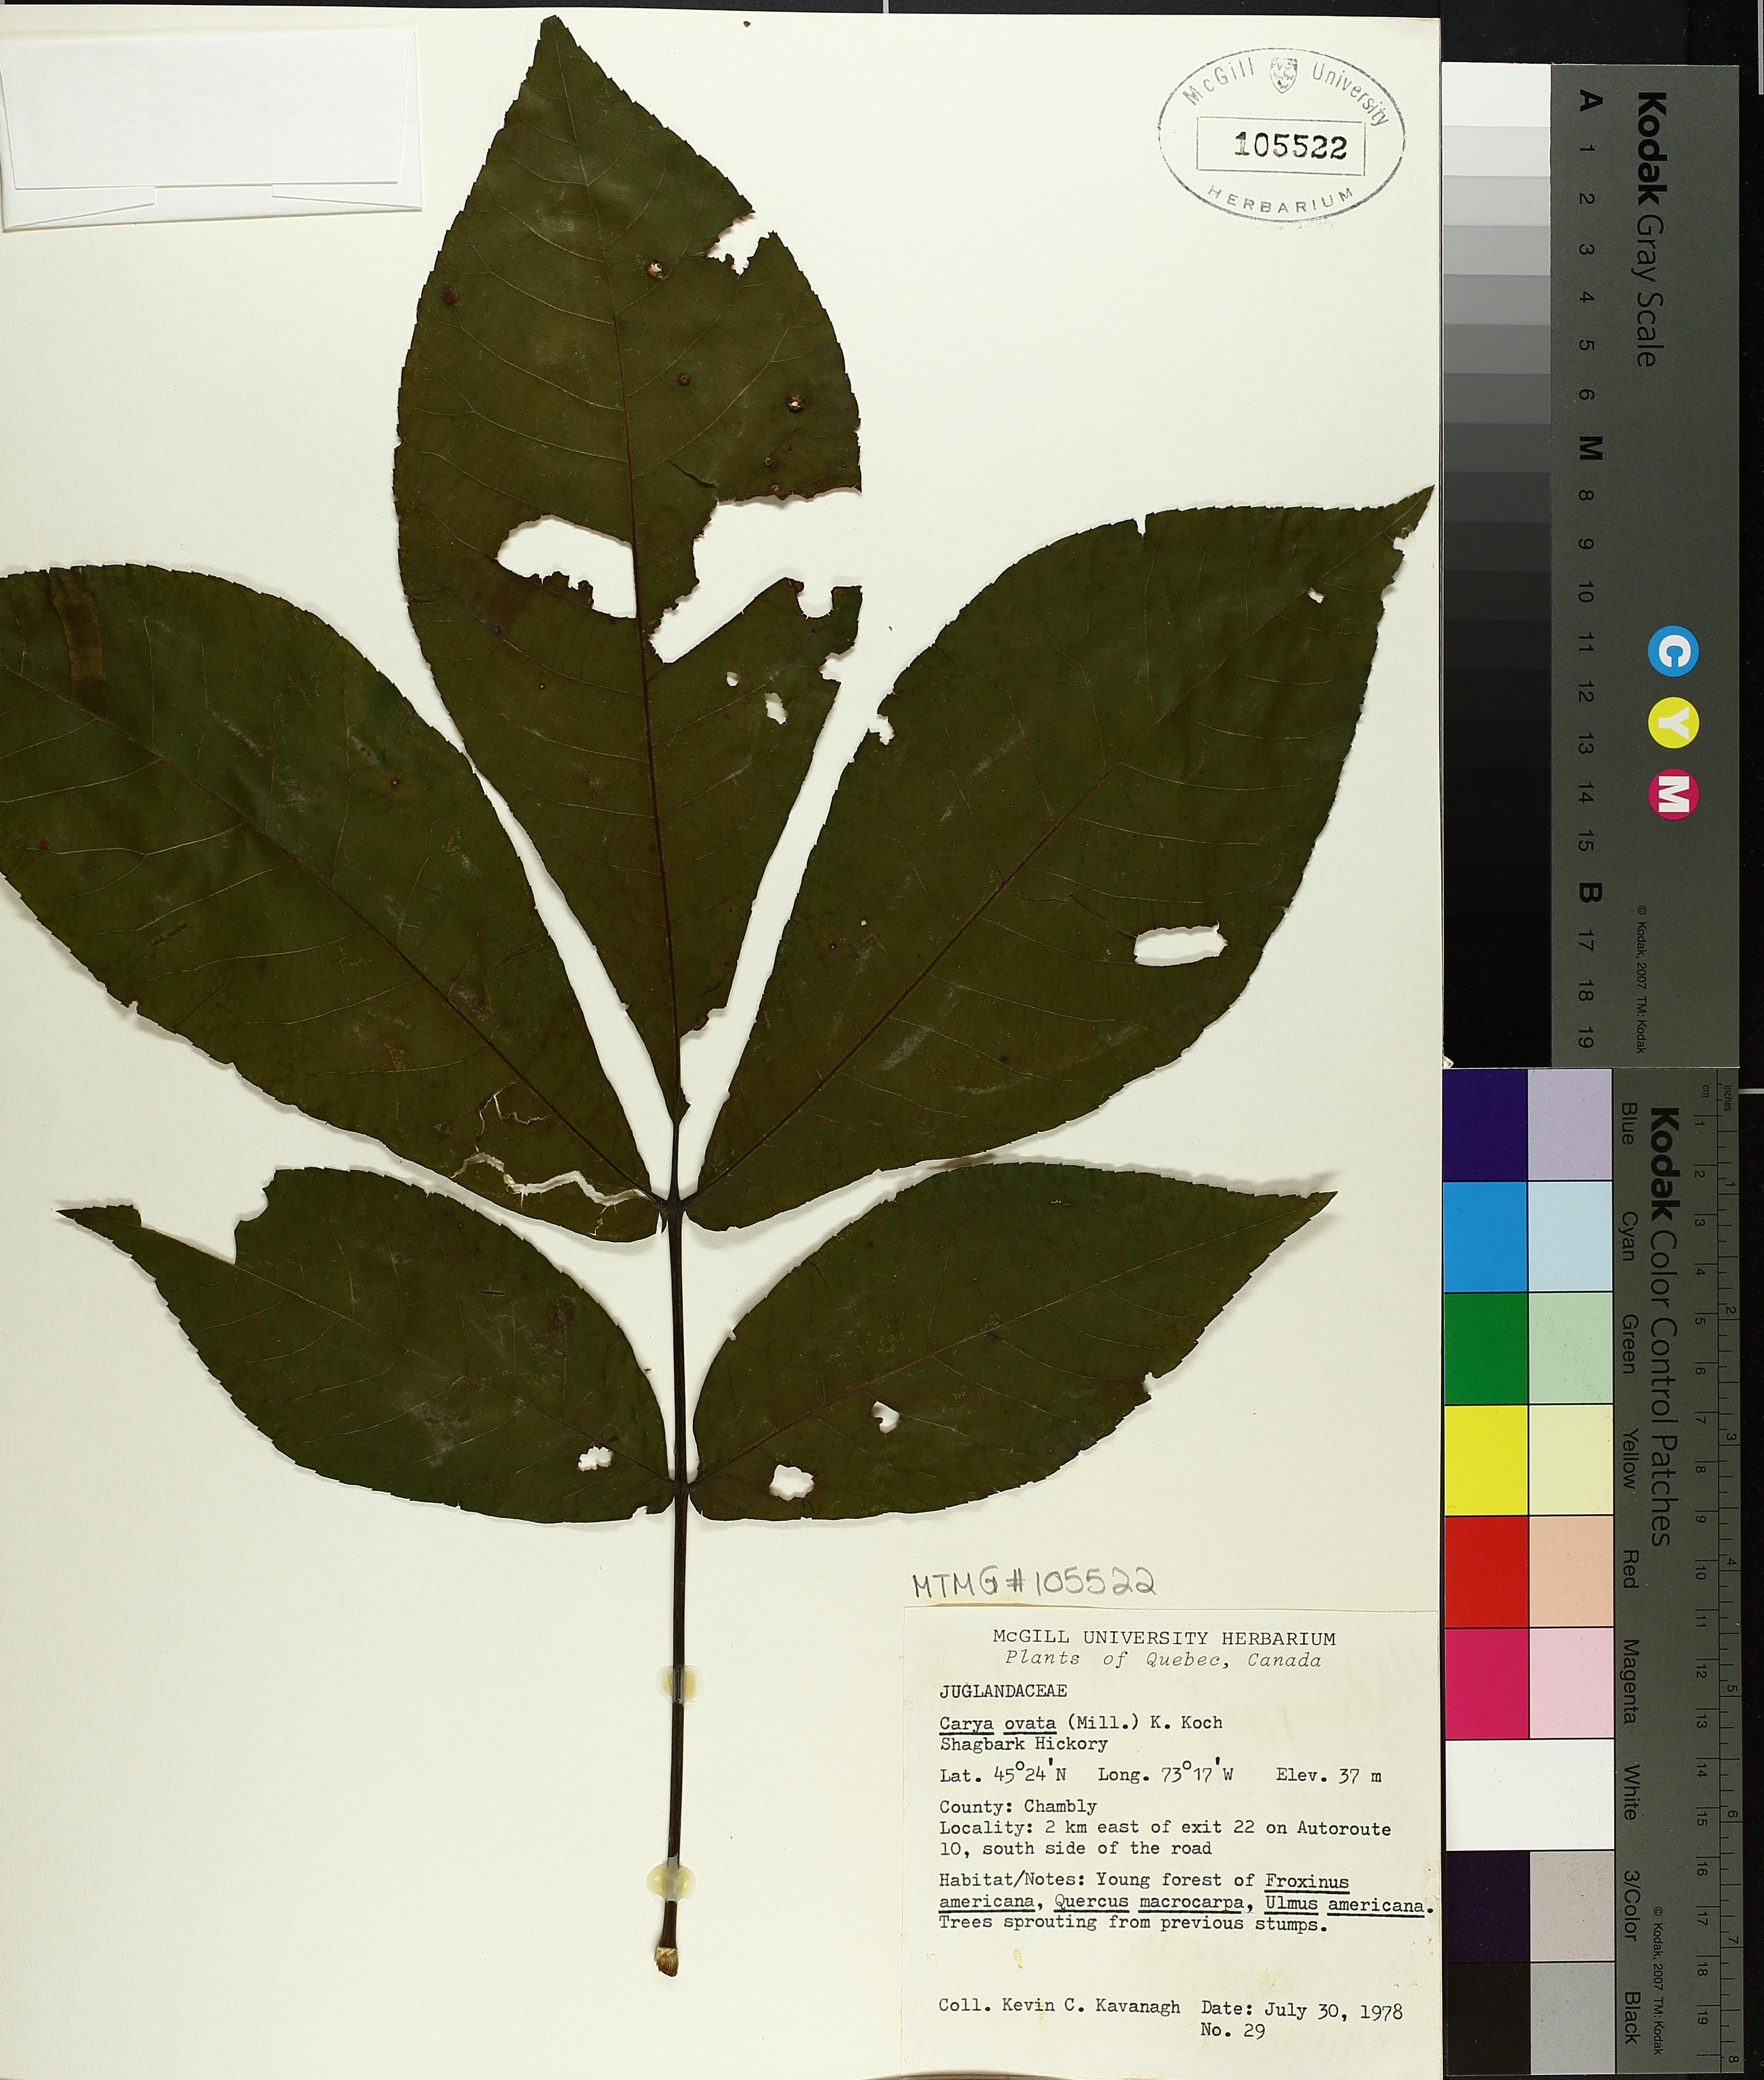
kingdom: Plantae
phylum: Tracheophyta
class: Magnoliopsida
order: Fagales
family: Juglandaceae
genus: Carya
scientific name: Carya ovata
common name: Shagbark hickory
